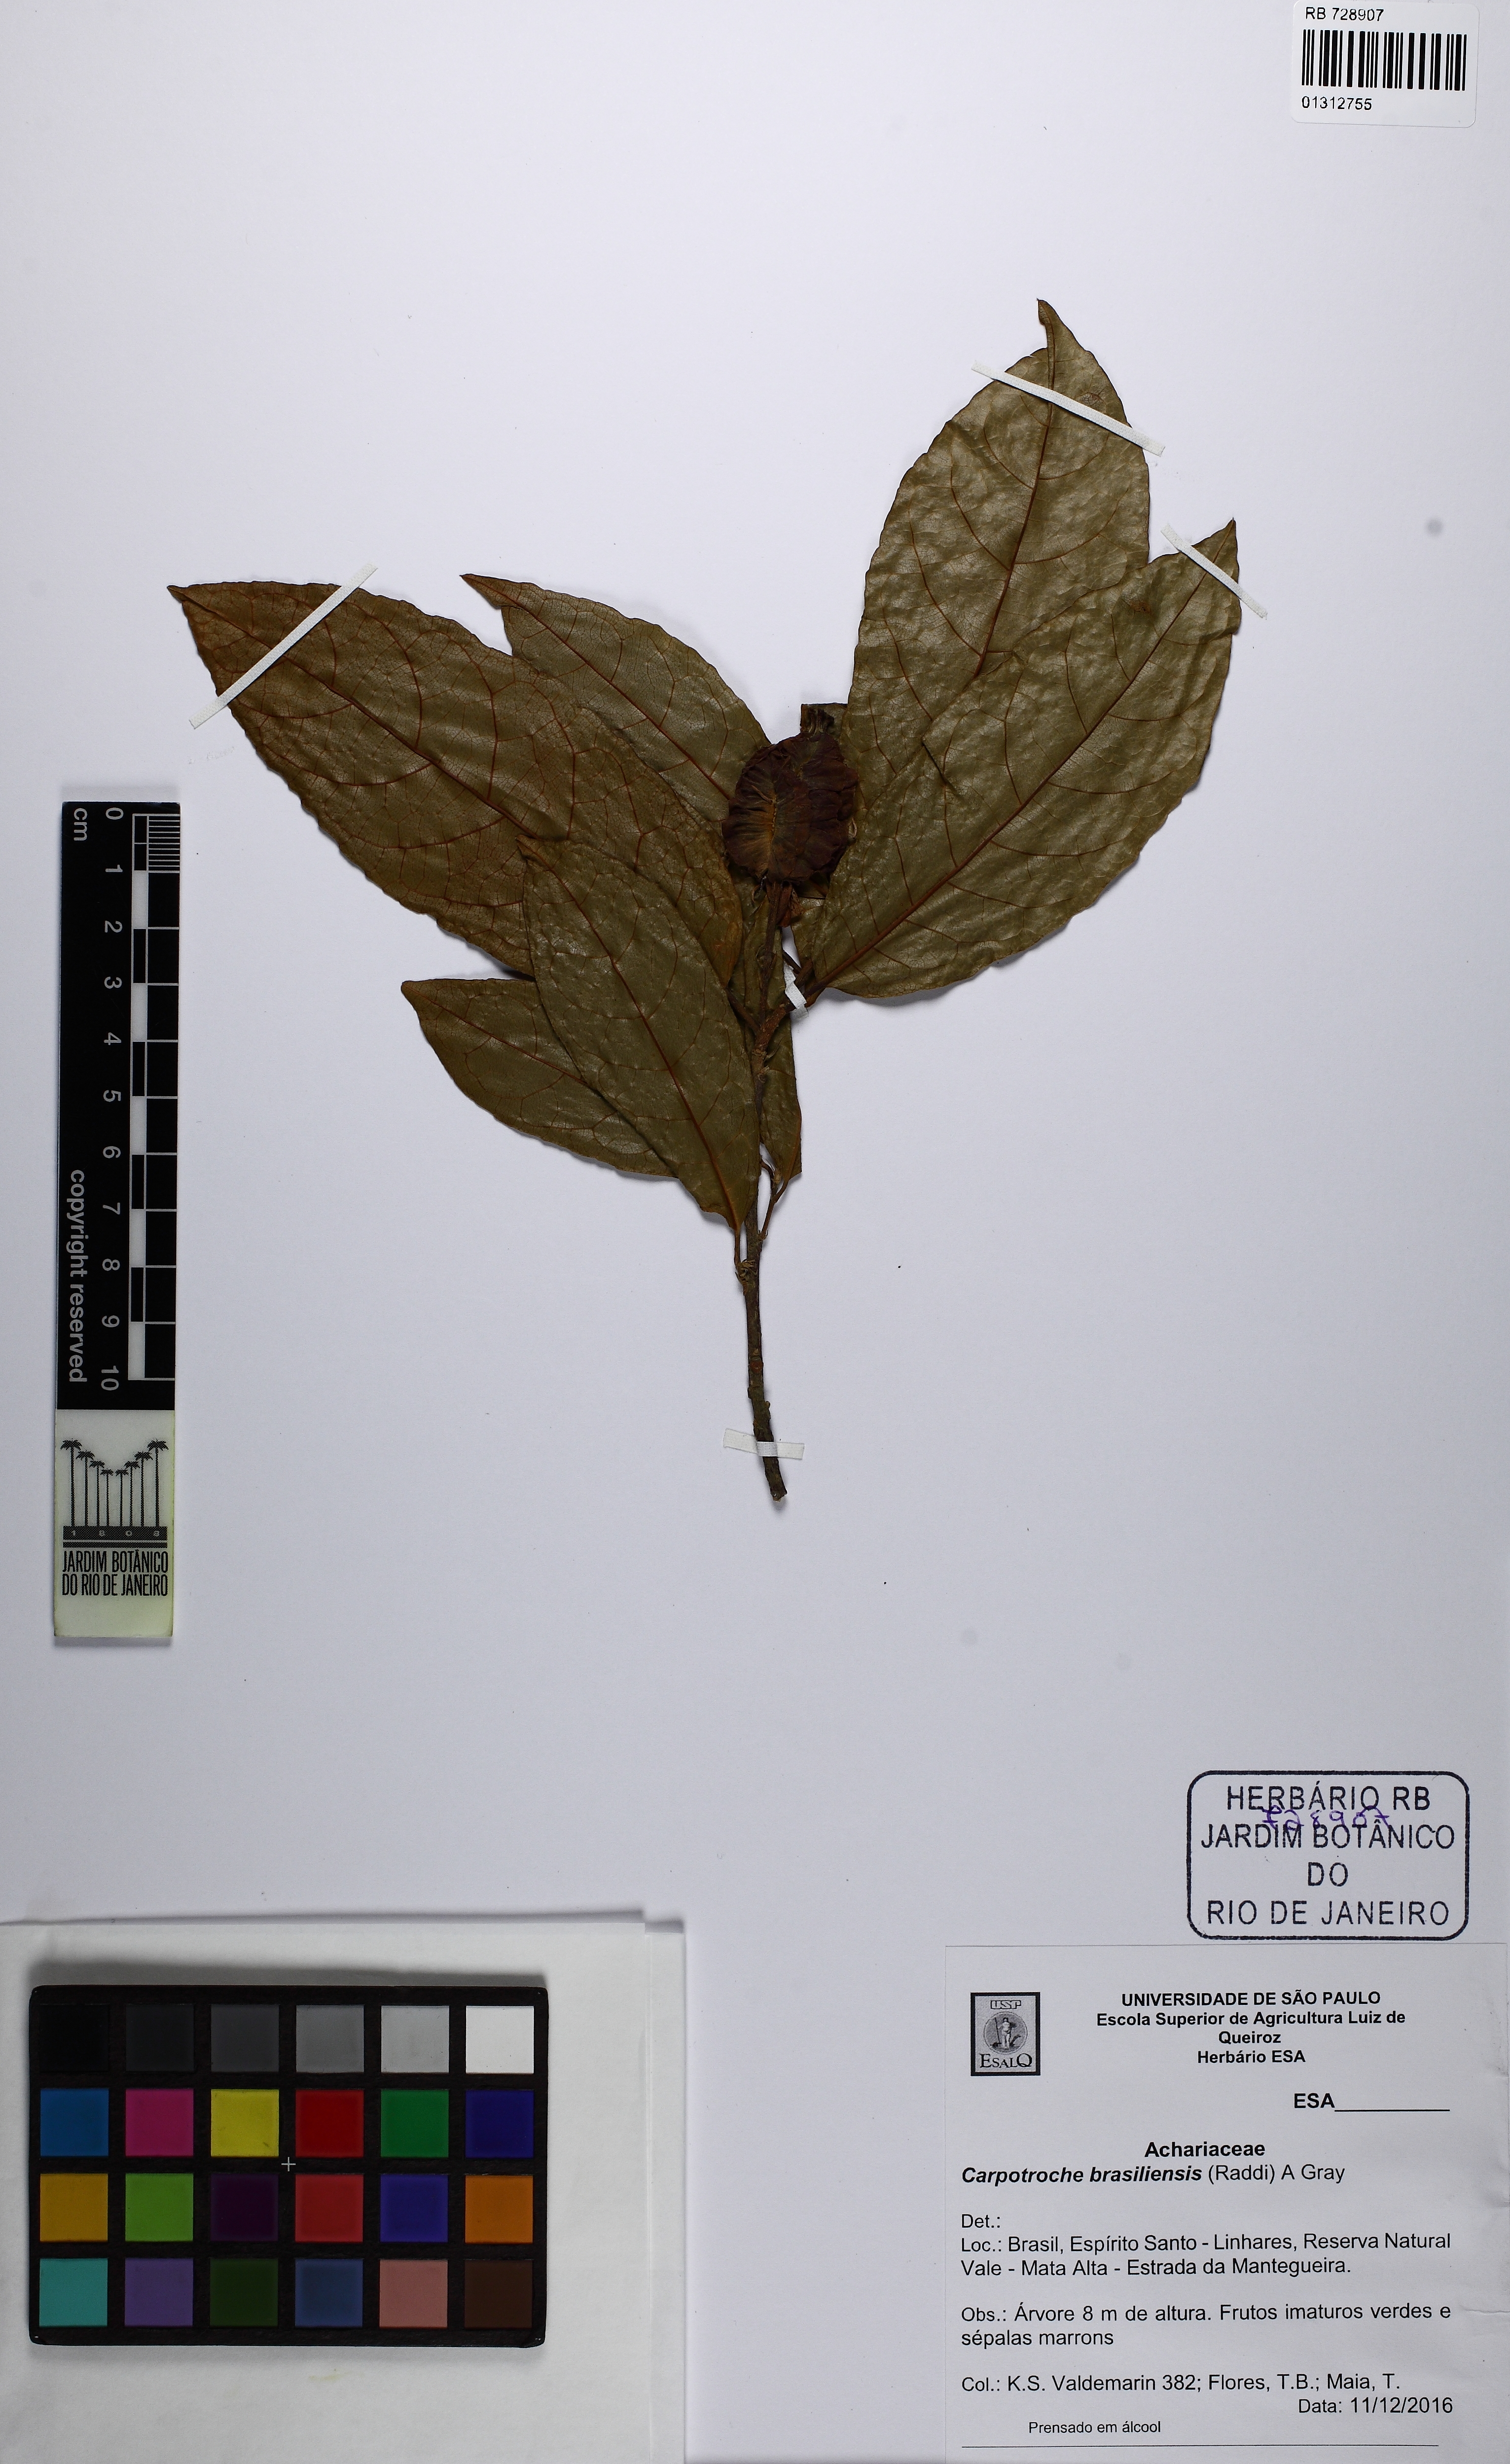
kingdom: Plantae
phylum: Tracheophyta
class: Magnoliopsida
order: Malpighiales
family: Achariaceae
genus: Carpotroche
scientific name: Carpotroche brasiliensis
